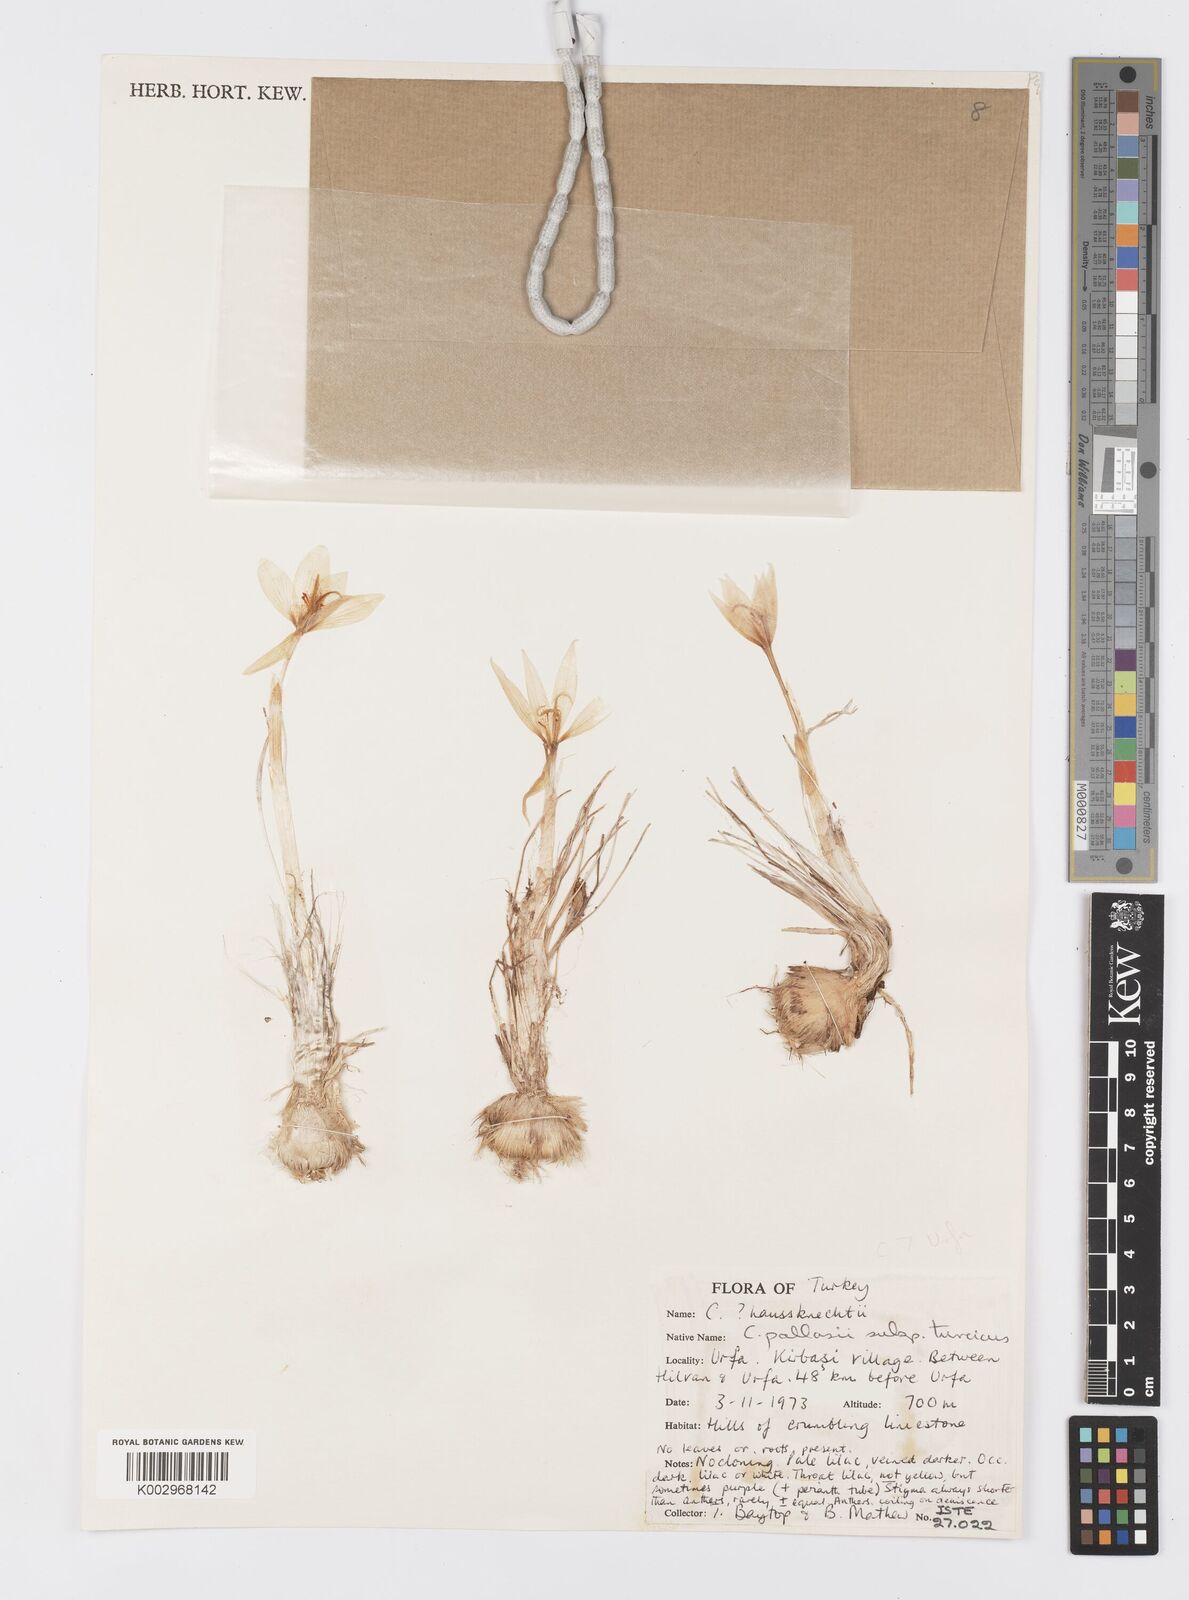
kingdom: Plantae
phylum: Tracheophyta
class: Liliopsida
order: Asparagales
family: Iridaceae
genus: Crocus
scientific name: Crocus turcicus
